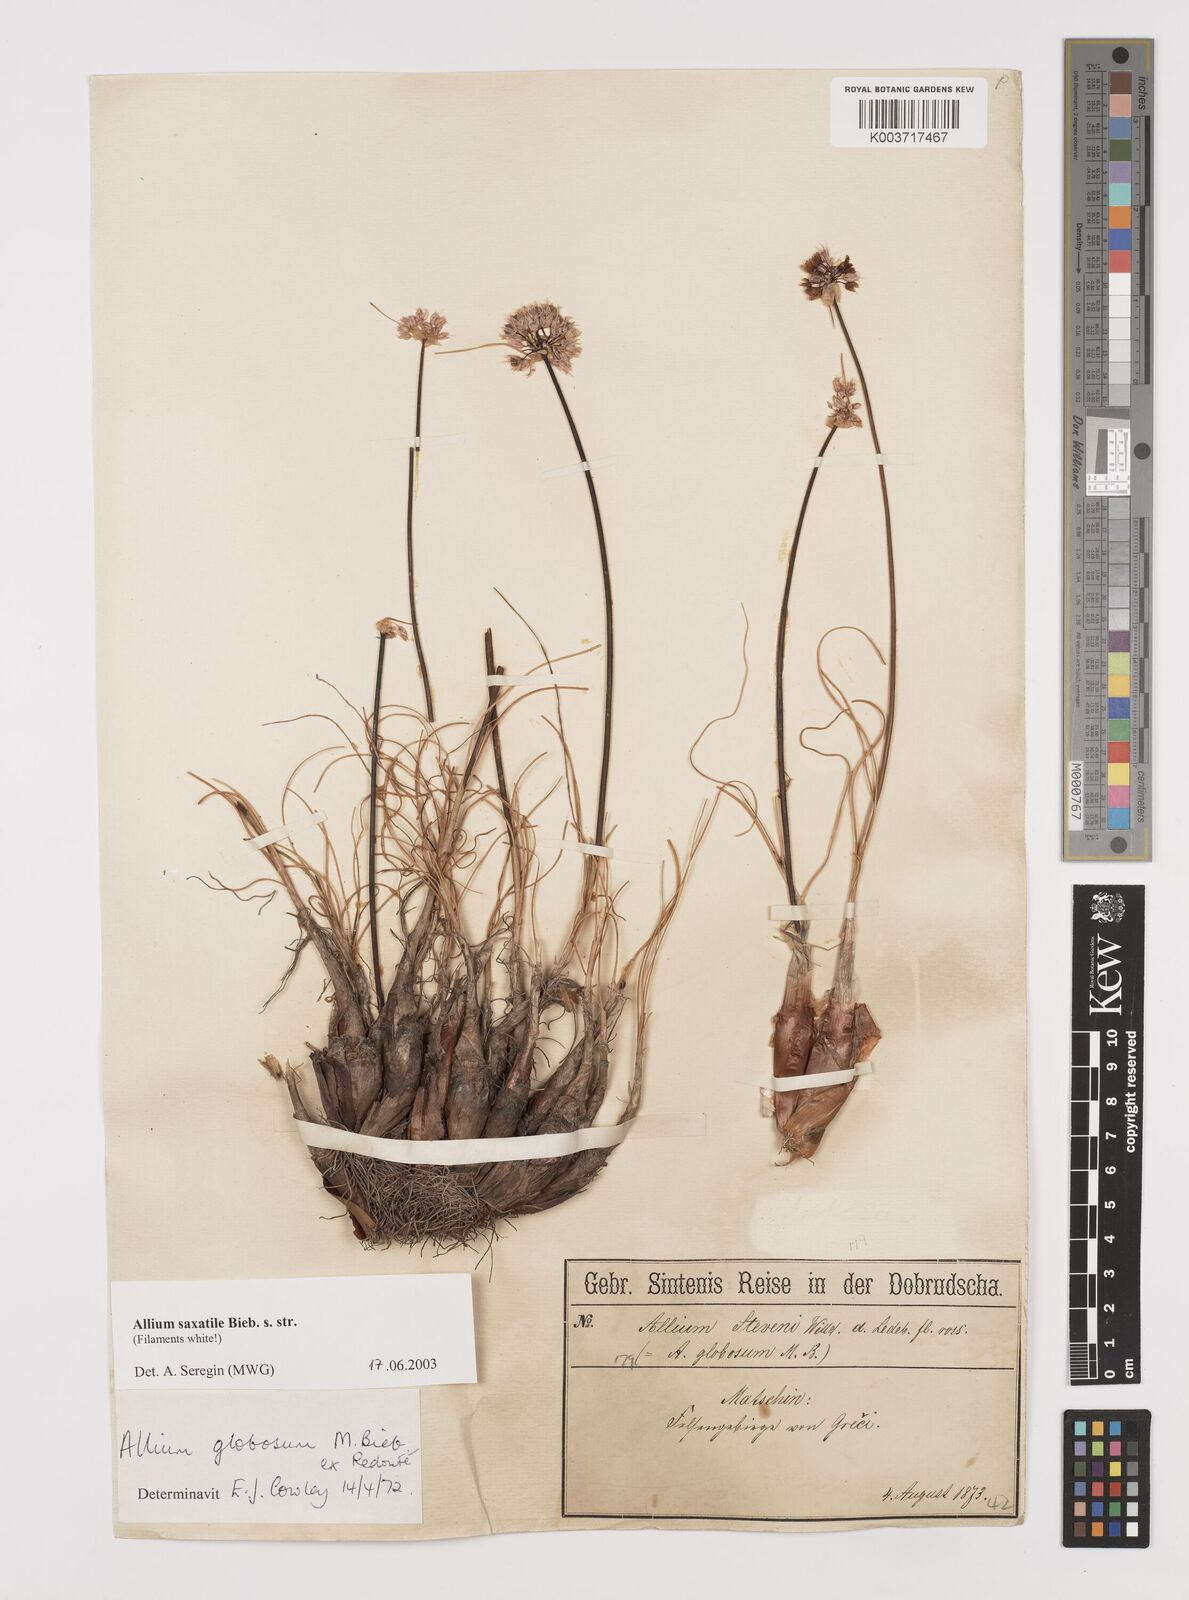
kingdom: Plantae
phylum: Tracheophyta
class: Liliopsida
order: Asparagales
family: Amaryllidaceae
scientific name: Amaryllidaceae
